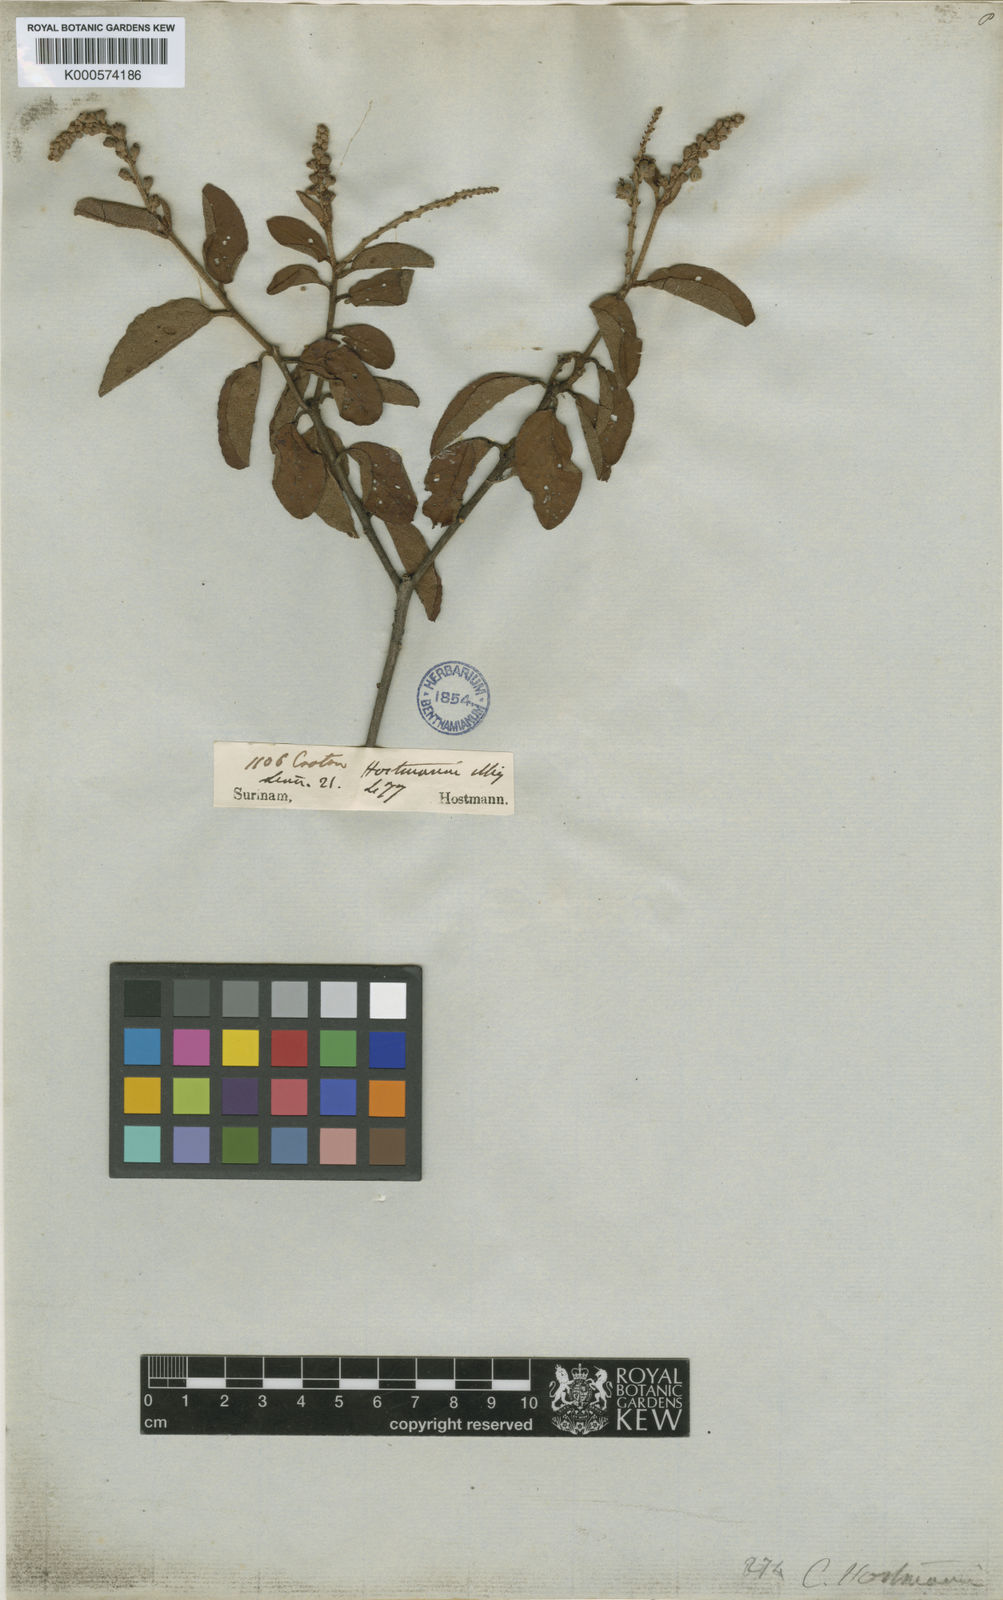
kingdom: Plantae
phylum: Tracheophyta
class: Magnoliopsida
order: Malpighiales
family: Euphorbiaceae
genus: Croton
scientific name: Croton hostmannii
